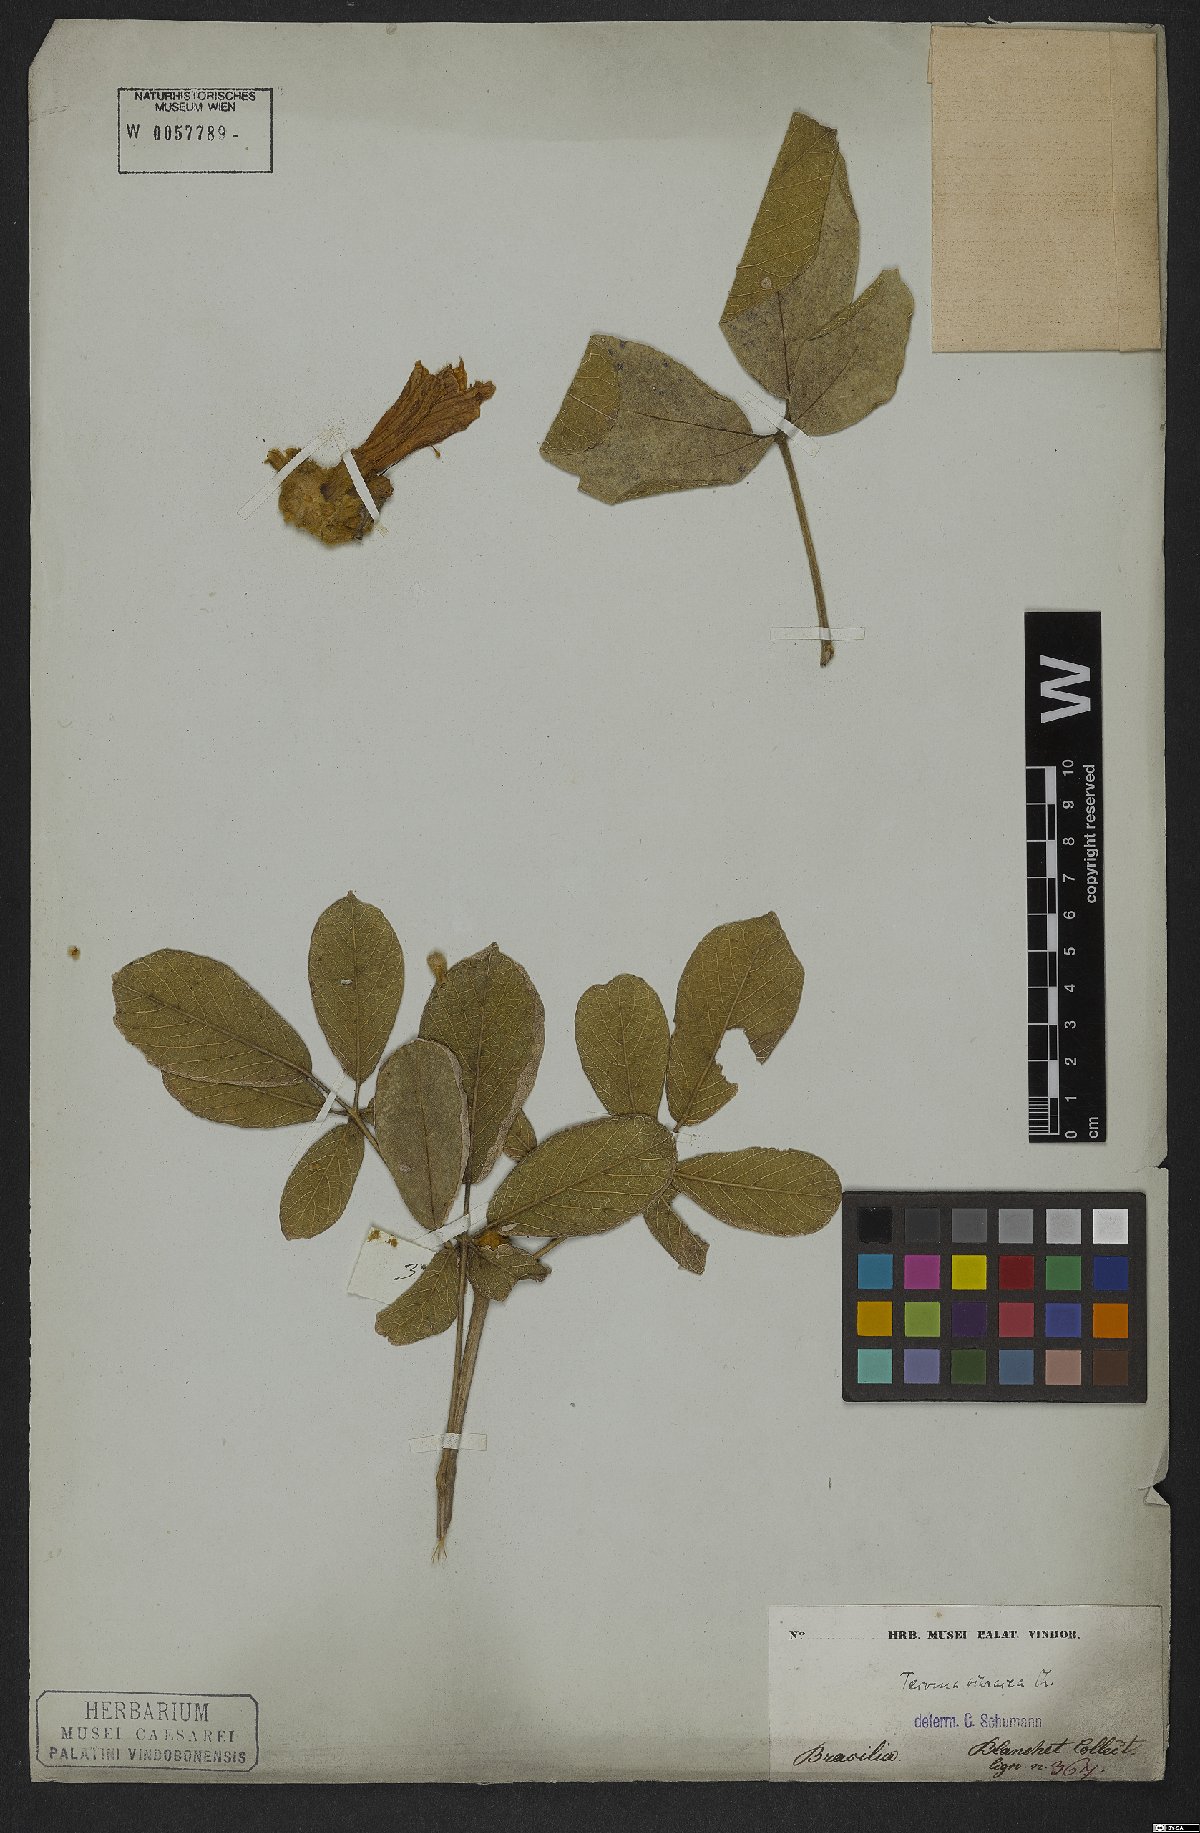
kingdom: Plantae
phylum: Tracheophyta
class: Magnoliopsida
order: Lamiales
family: Bignoniaceae
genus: Handroanthus
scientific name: Handroanthus ochraceus
